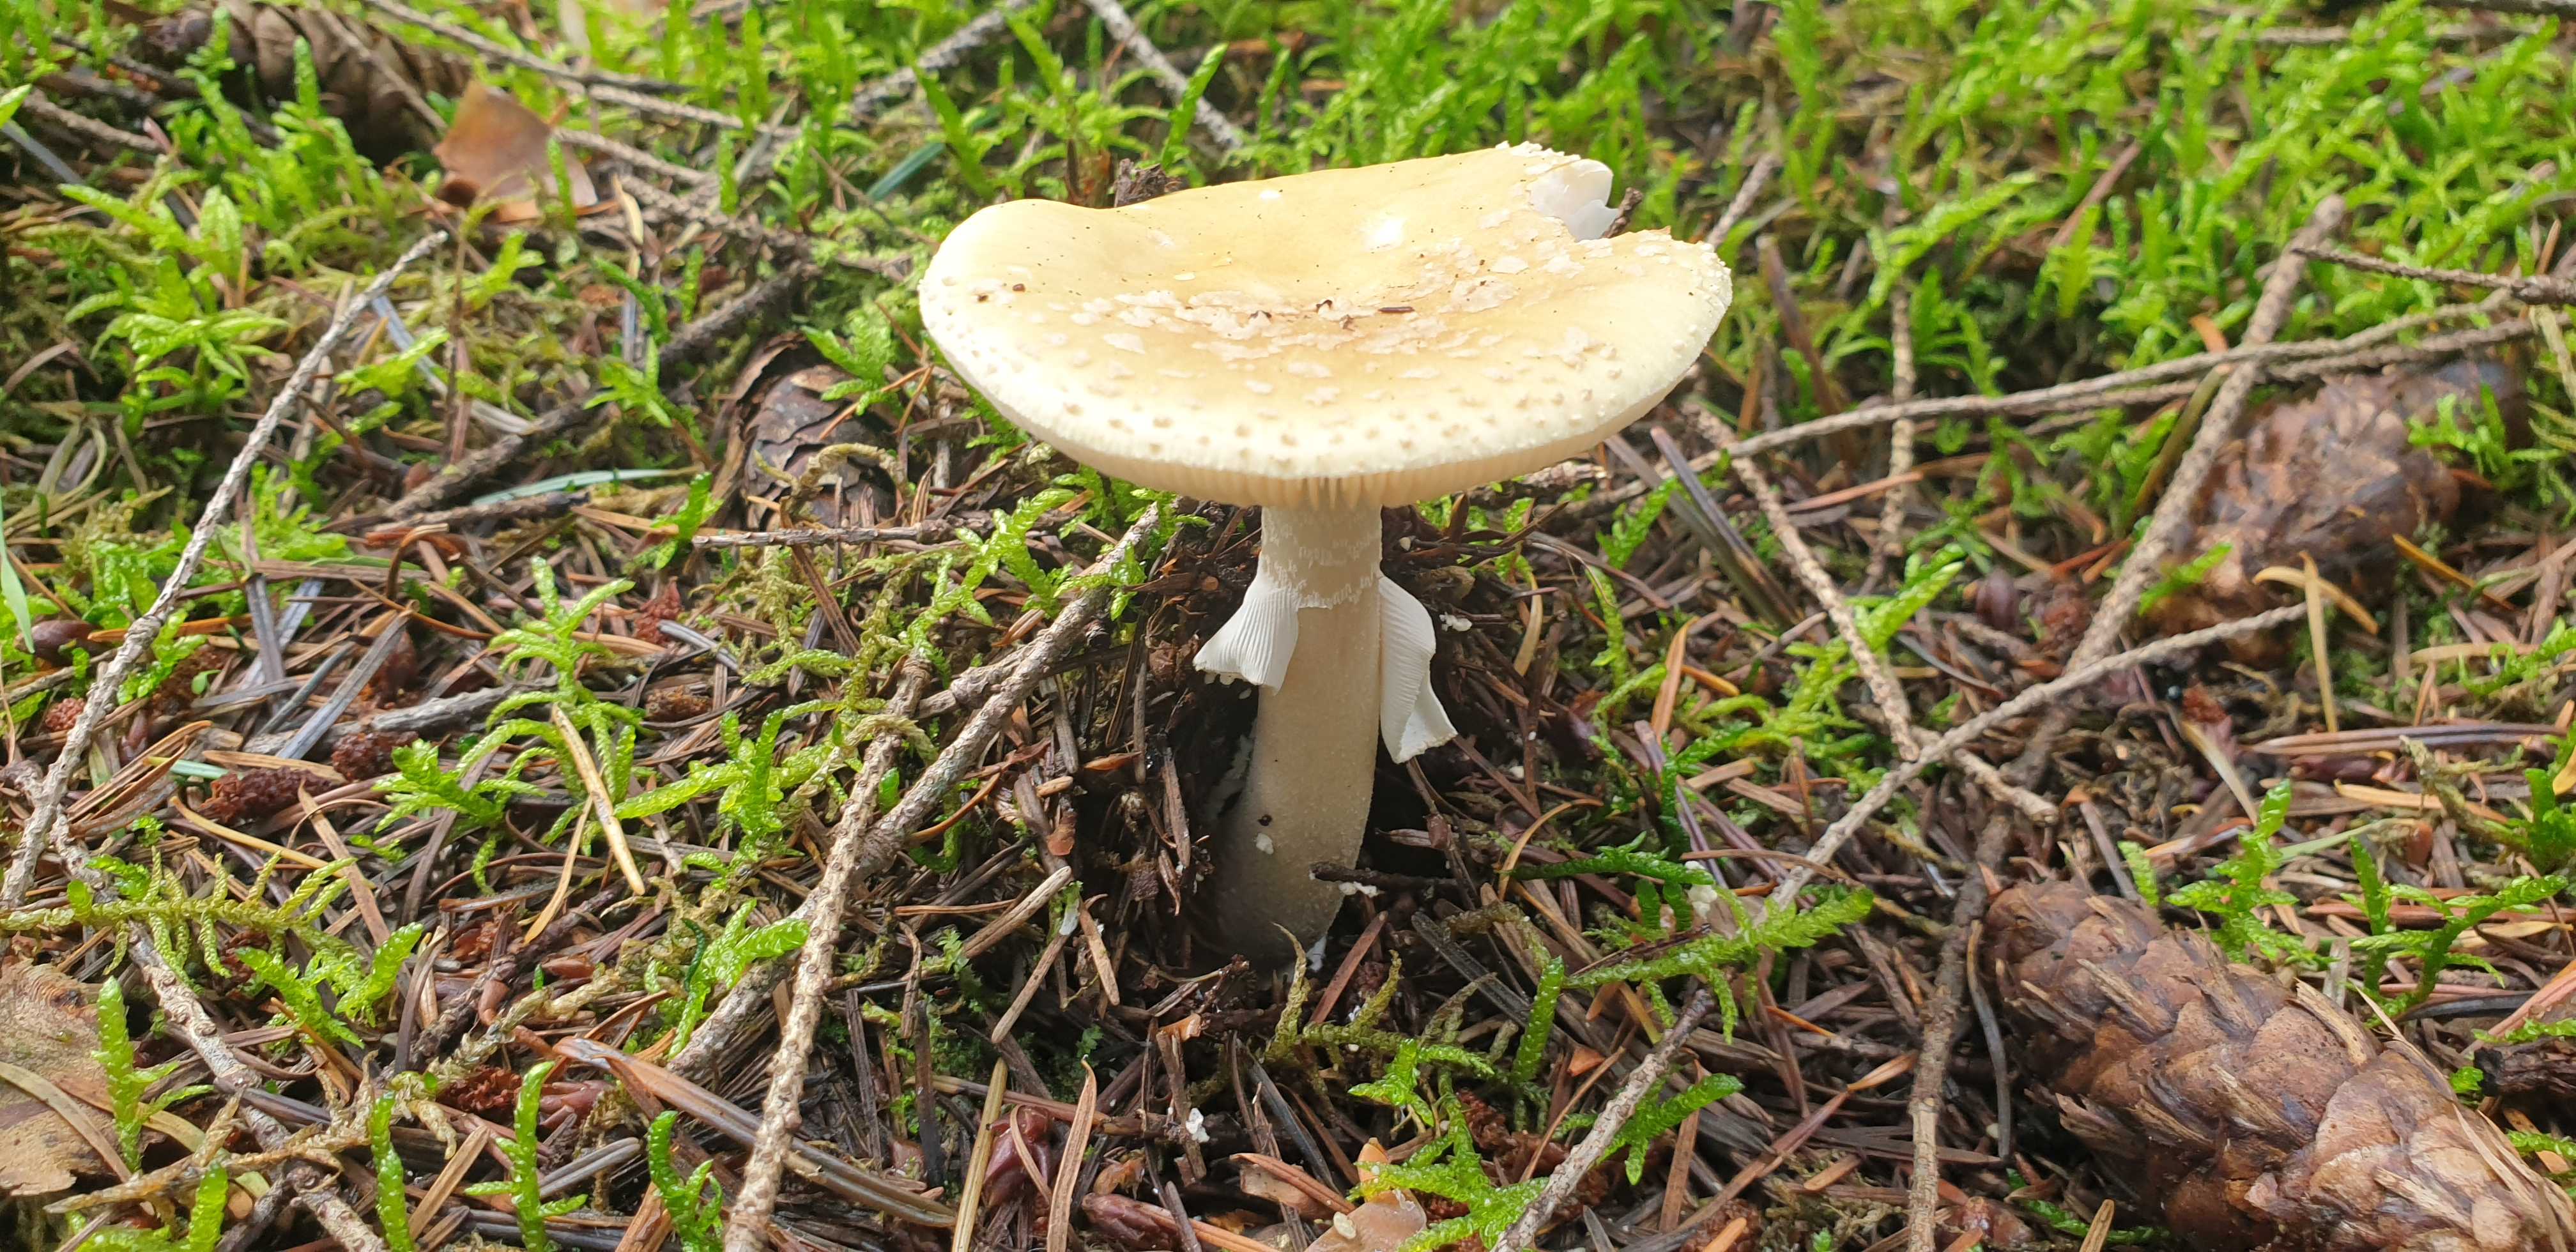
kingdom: Fungi
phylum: Basidiomycota
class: Agaricomycetes
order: Agaricales
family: Amanitaceae
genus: Amanita
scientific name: Amanita rubescens
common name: rødmende fluesvamp
